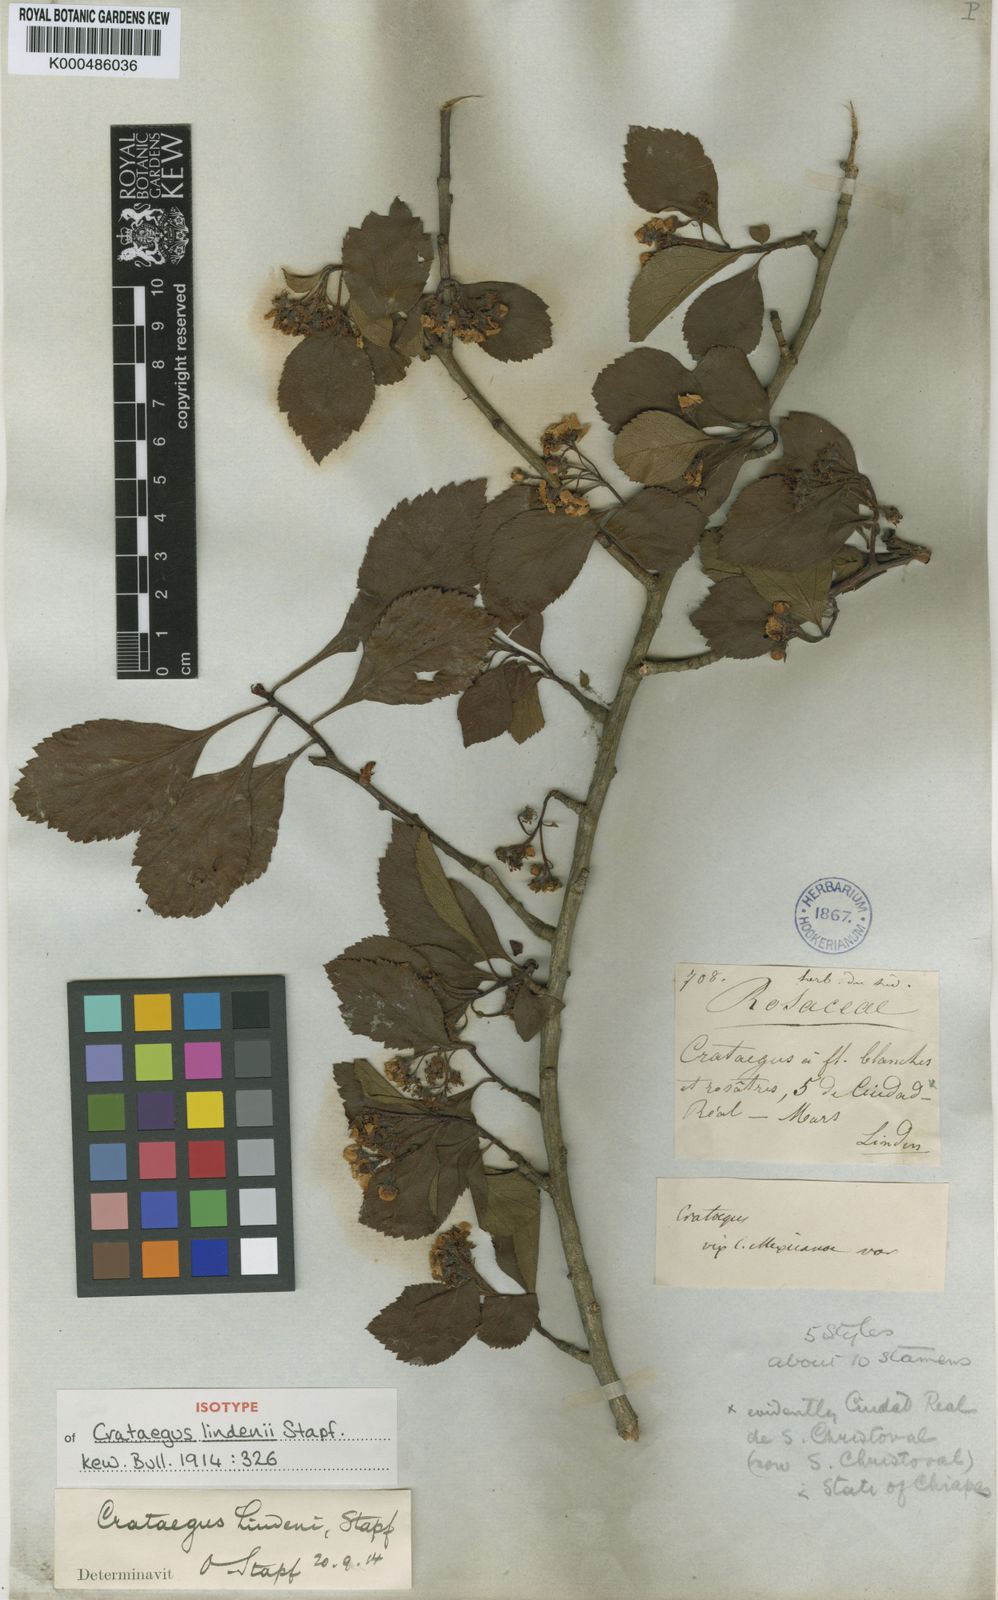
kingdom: Plantae
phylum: Tracheophyta
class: Magnoliopsida
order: Rosales
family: Rosaceae
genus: Crataegus
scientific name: Crataegus lindenii
